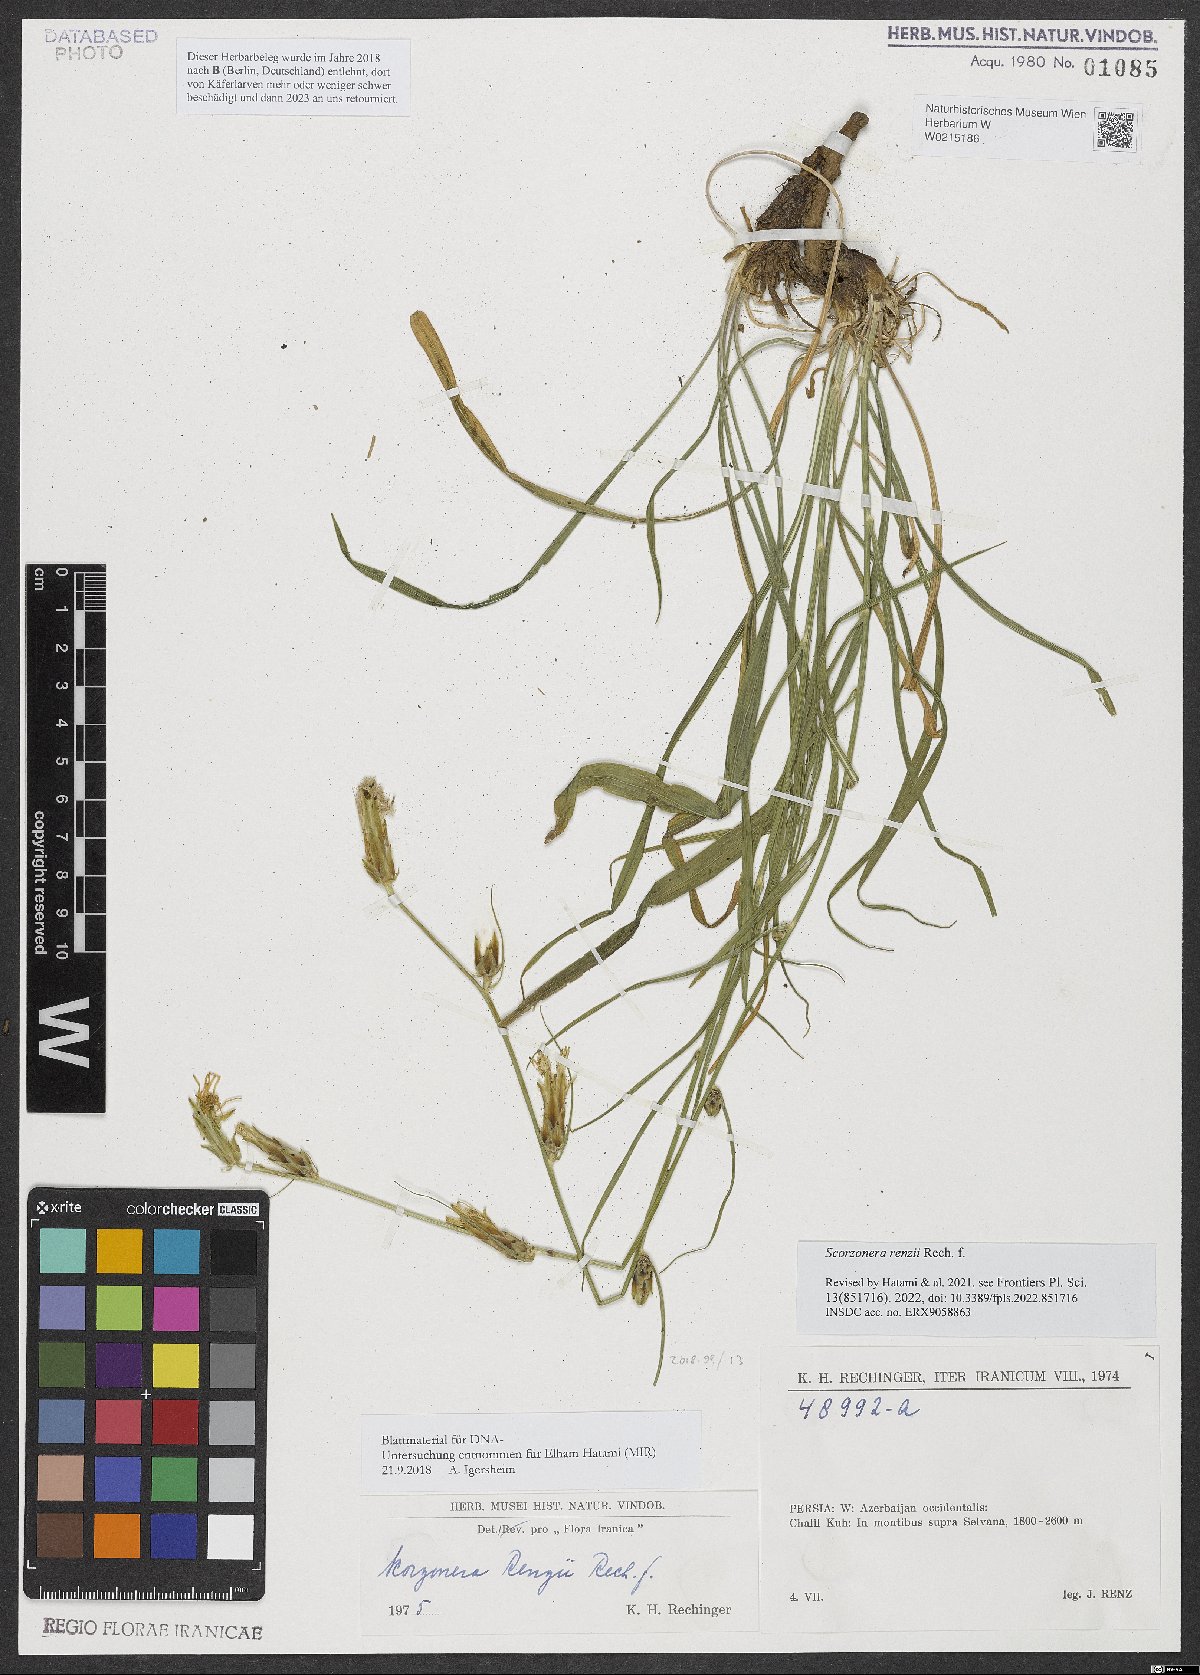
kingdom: Plantae
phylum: Tracheophyta
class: Magnoliopsida
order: Asterales
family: Asteraceae
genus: Candollea
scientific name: Candollea renzii
